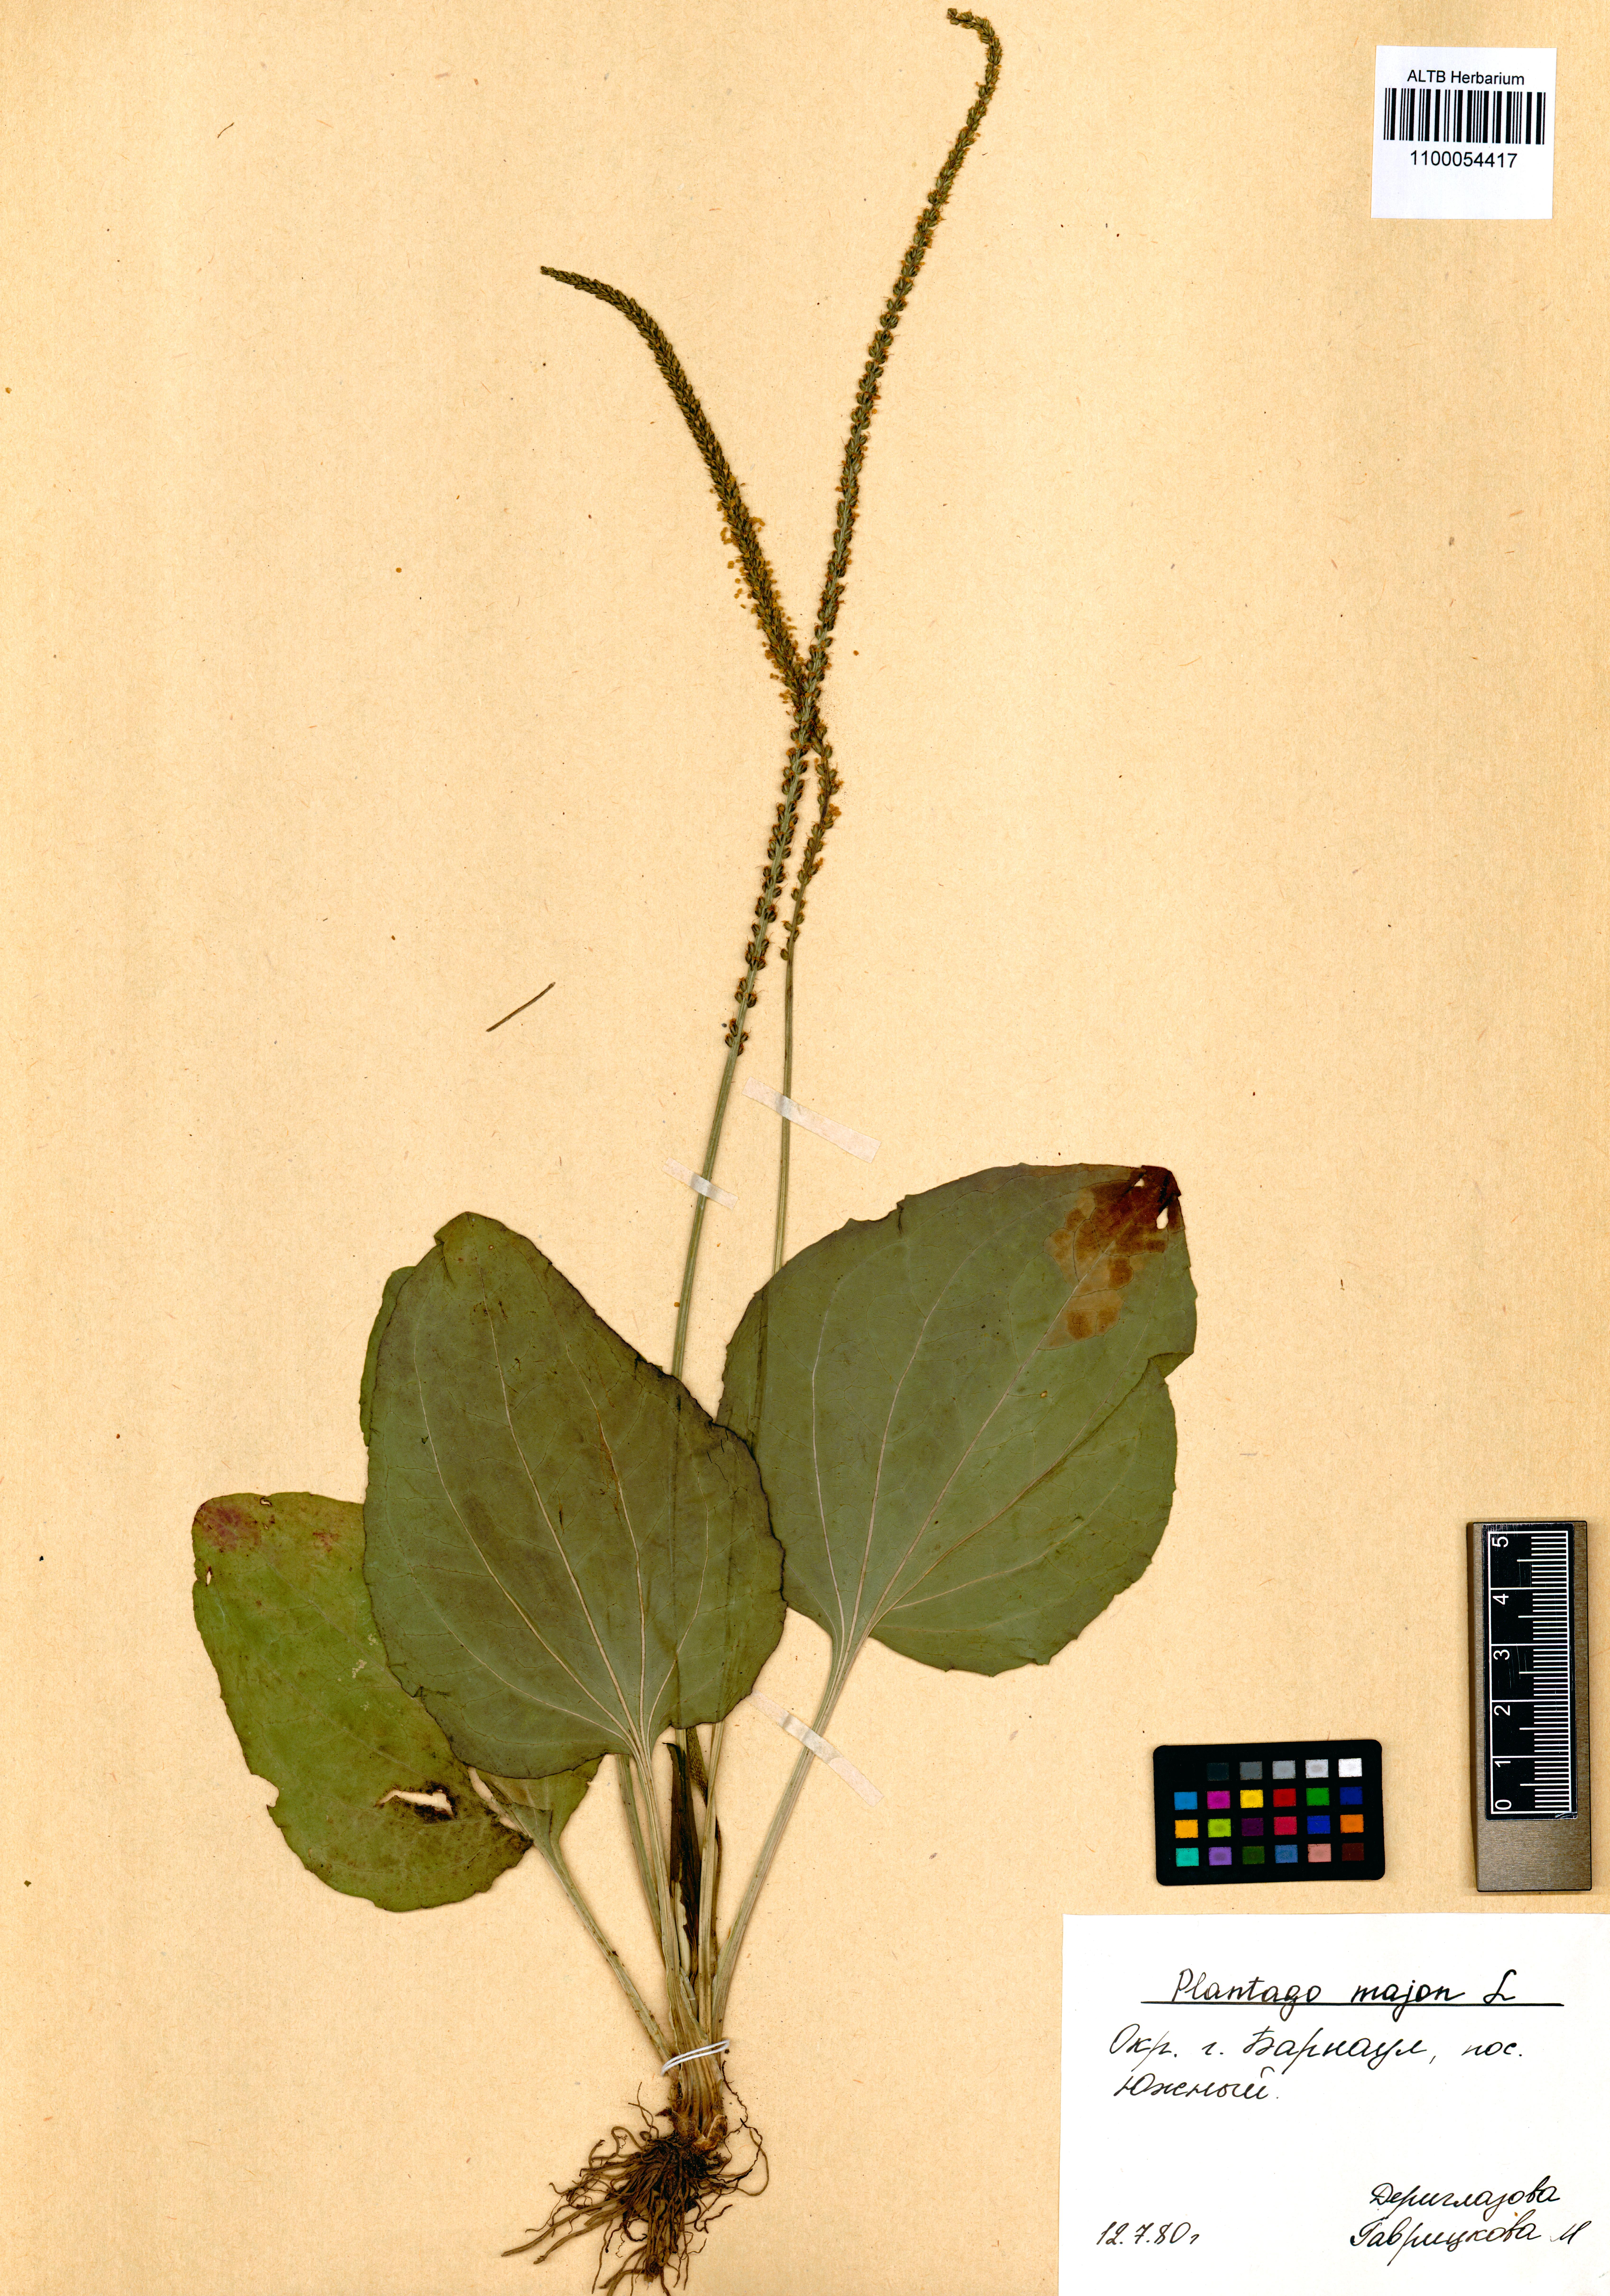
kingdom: Plantae
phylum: Tracheophyta
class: Magnoliopsida
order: Lamiales
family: Plantaginaceae
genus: Plantago
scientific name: Plantago major
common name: Common plantain
